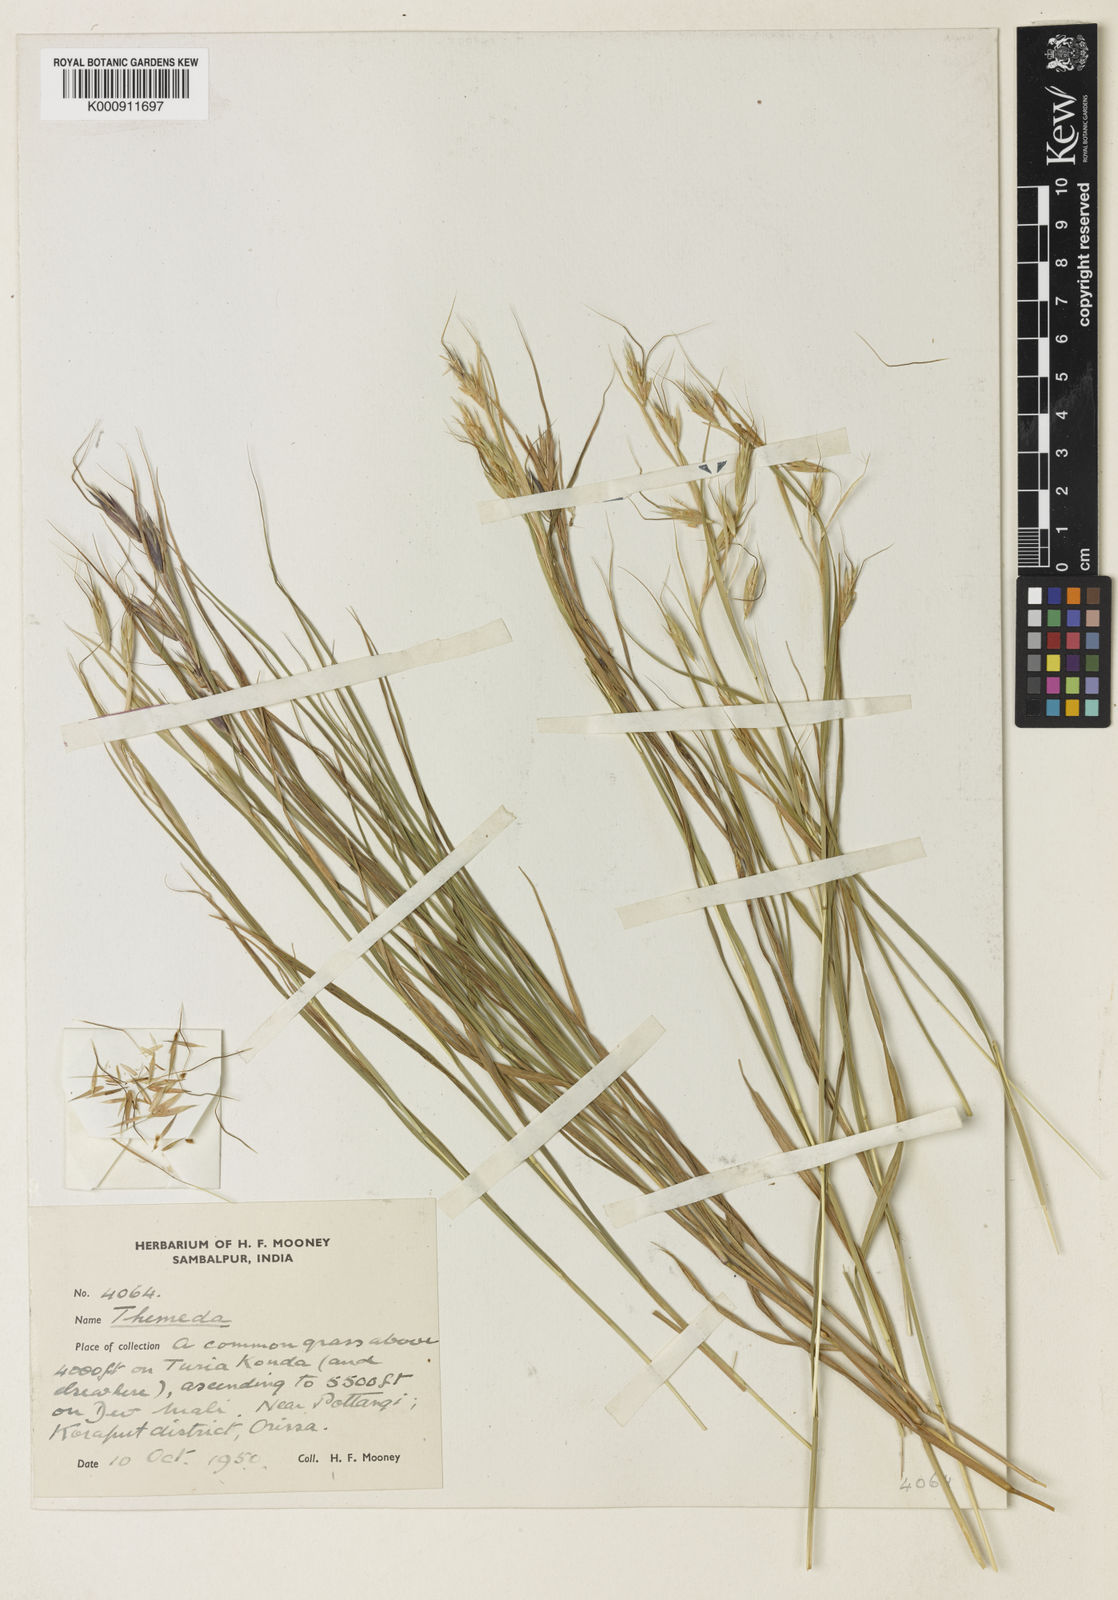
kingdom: Plantae
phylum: Tracheophyta
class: Liliopsida
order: Poales
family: Poaceae
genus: Themeda
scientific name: Themeda mooneyi
